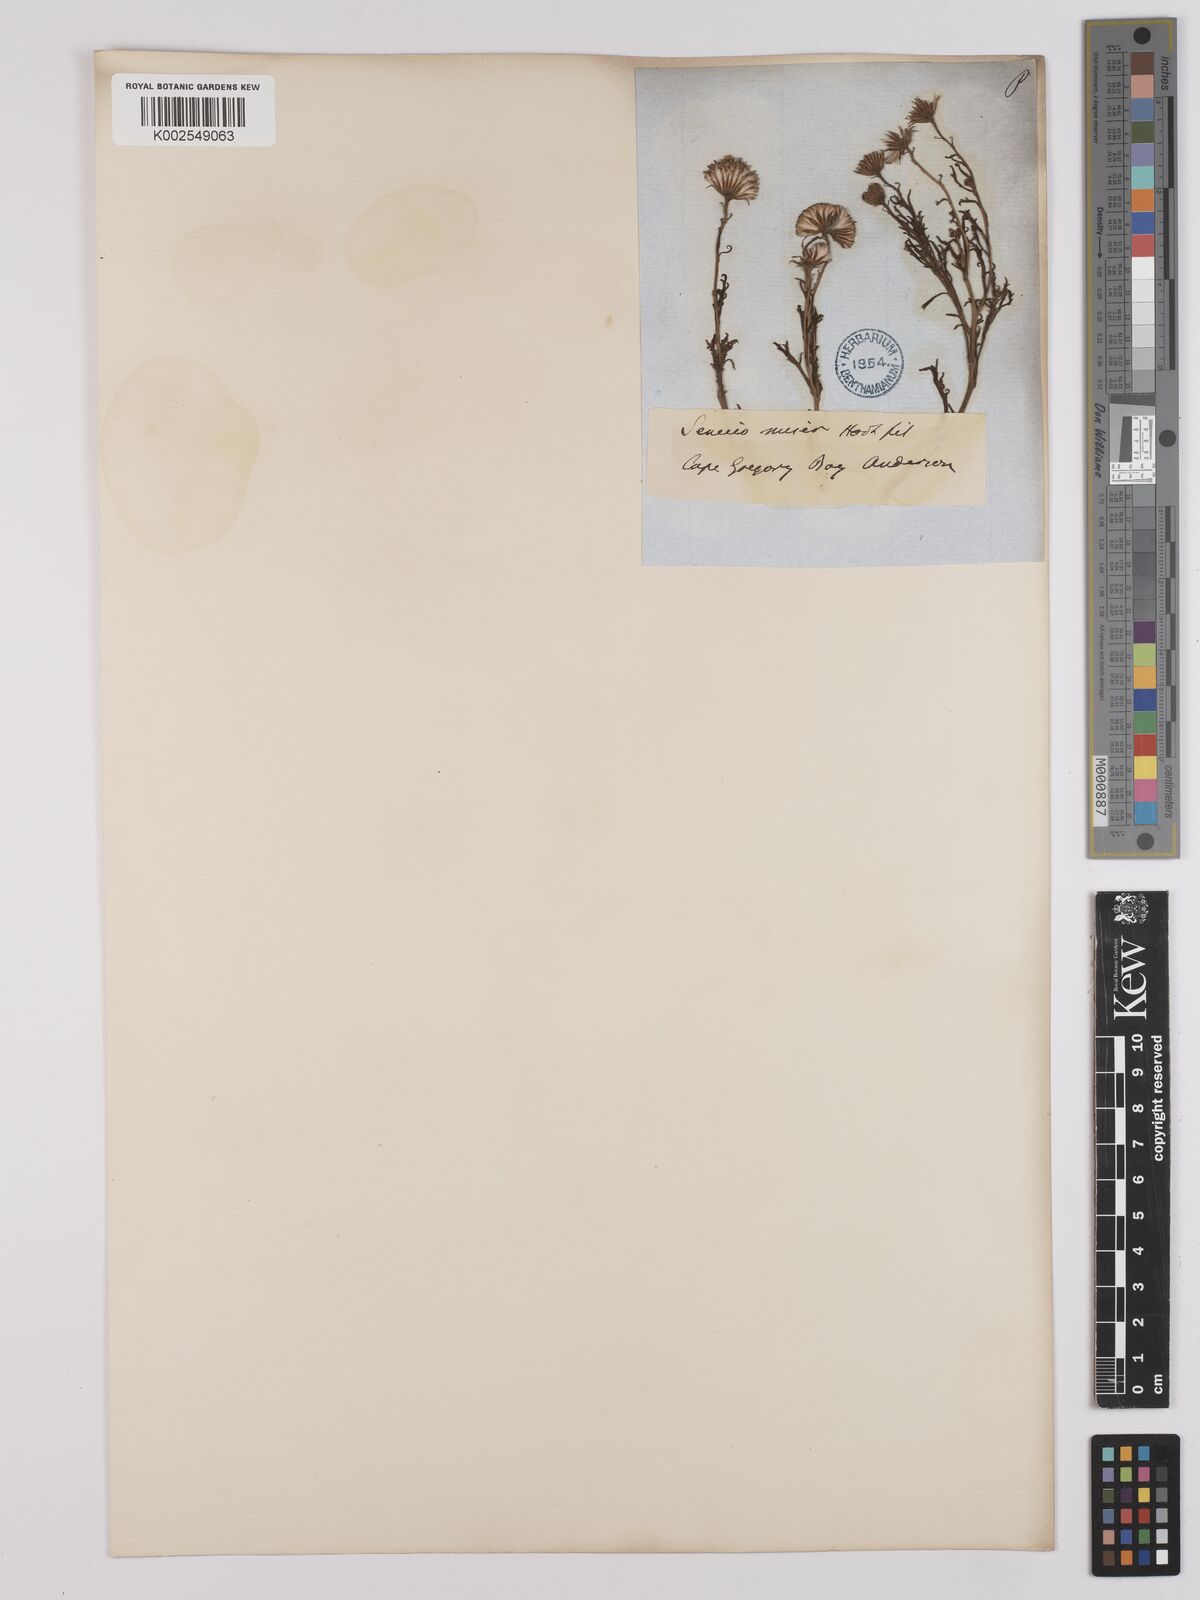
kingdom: Plantae
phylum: Tracheophyta
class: Magnoliopsida
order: Asterales
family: Asteraceae
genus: Senecio
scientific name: Senecio miser
